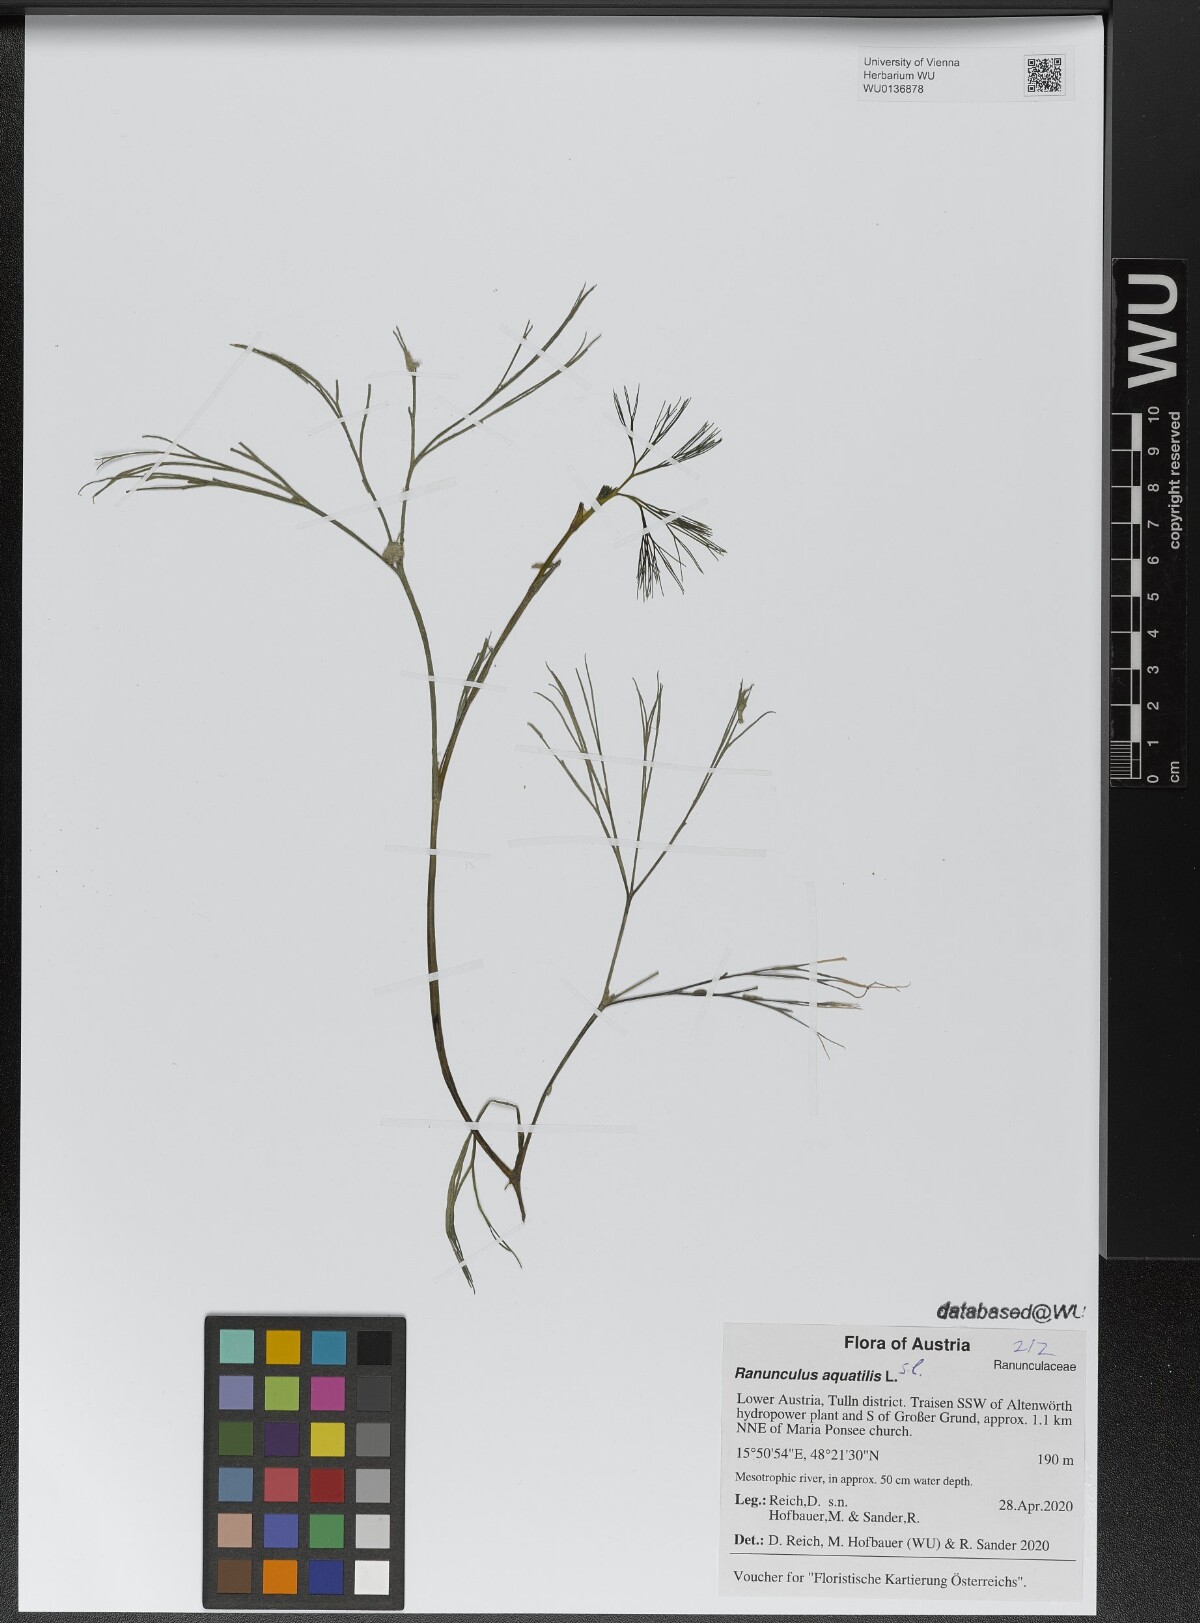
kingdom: Plantae
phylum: Tracheophyta
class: Magnoliopsida
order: Ranunculales
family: Ranunculaceae
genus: Ranunculus
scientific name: Ranunculus aquatilis
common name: Common water-crowfoot
